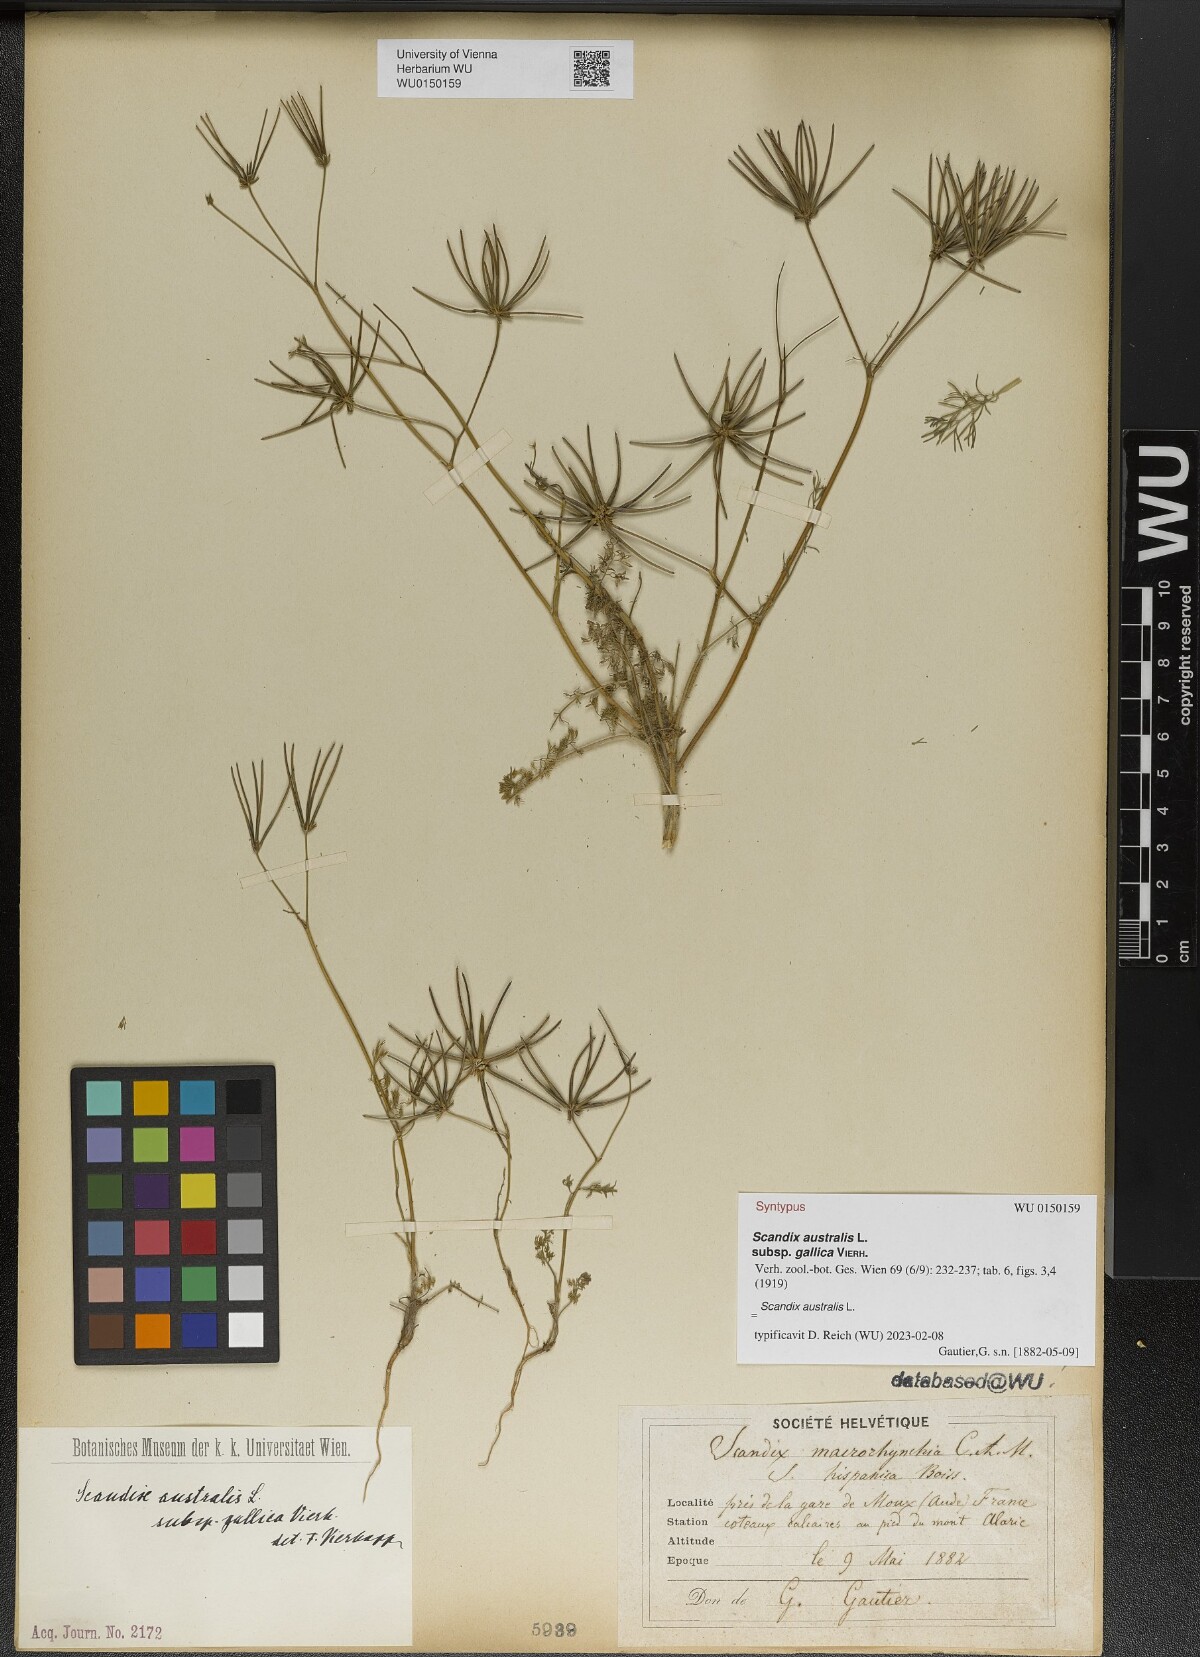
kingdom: Plantae
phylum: Tracheophyta
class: Magnoliopsida
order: Apiales
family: Apiaceae
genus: Scandix
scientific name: Scandix australis
